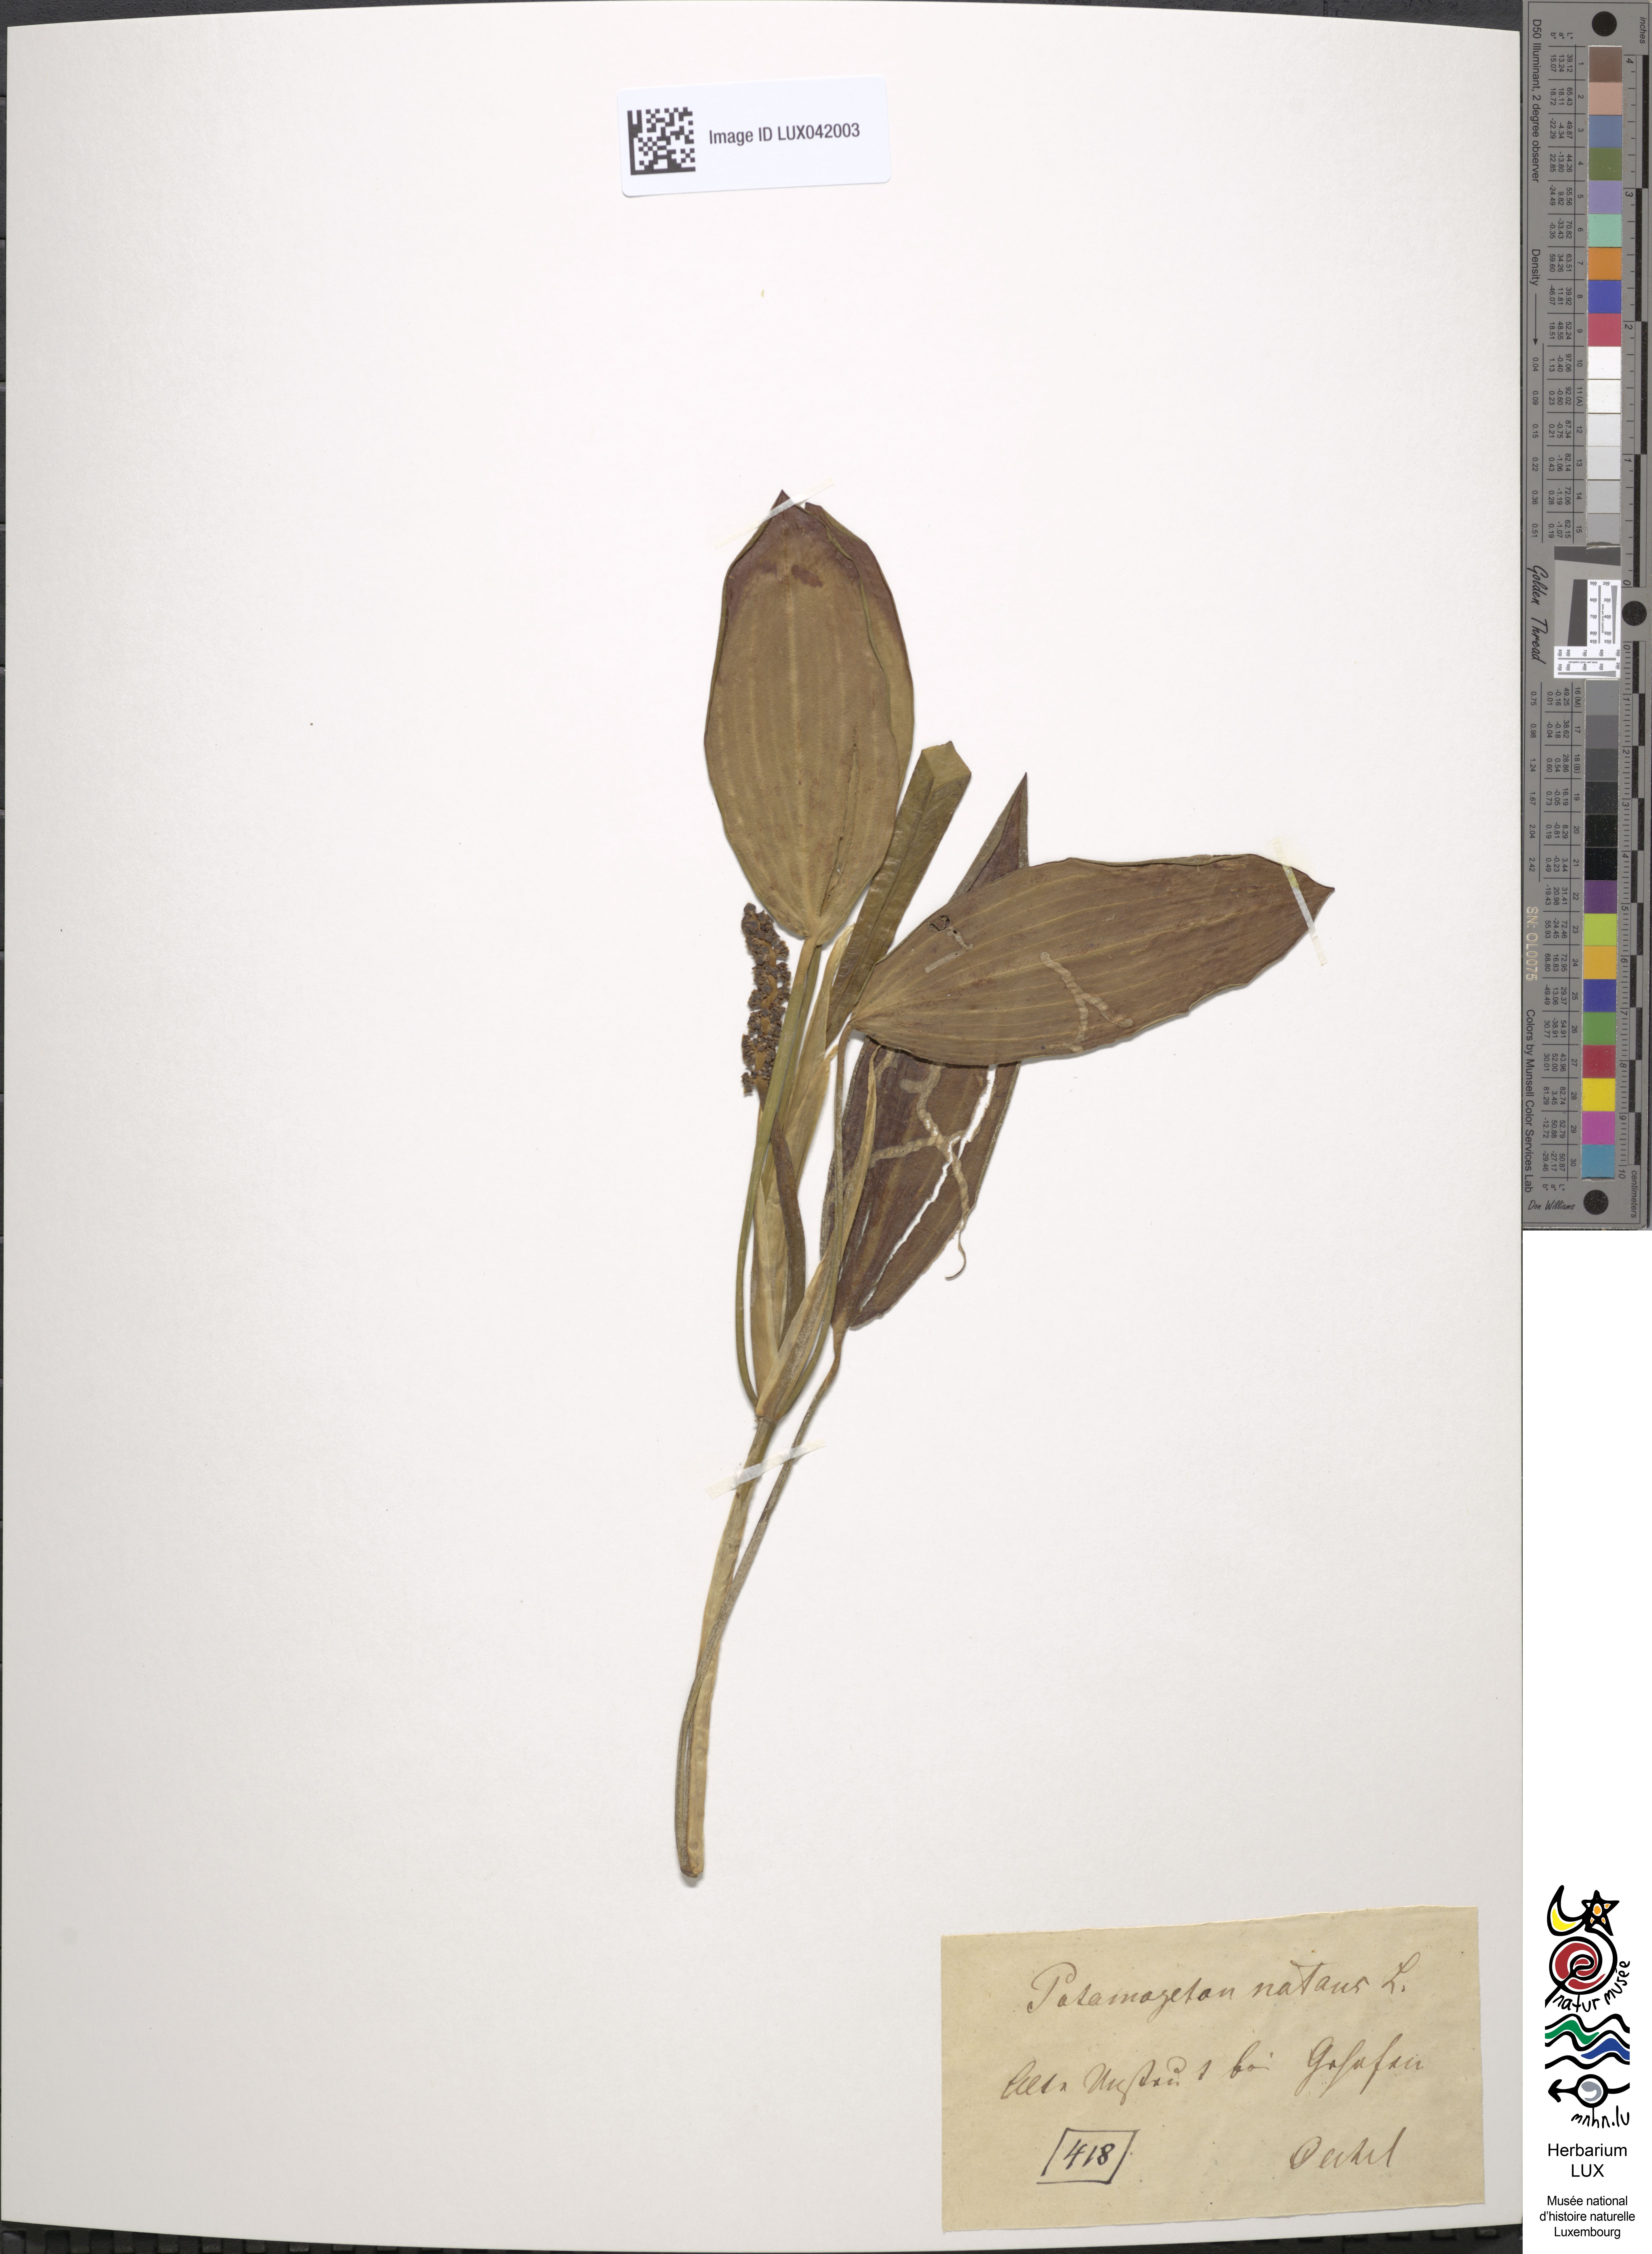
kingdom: Plantae
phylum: Tracheophyta
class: Liliopsida
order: Alismatales
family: Potamogetonaceae
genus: Potamogeton
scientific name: Potamogeton natans
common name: Broad-leaved pondweed
